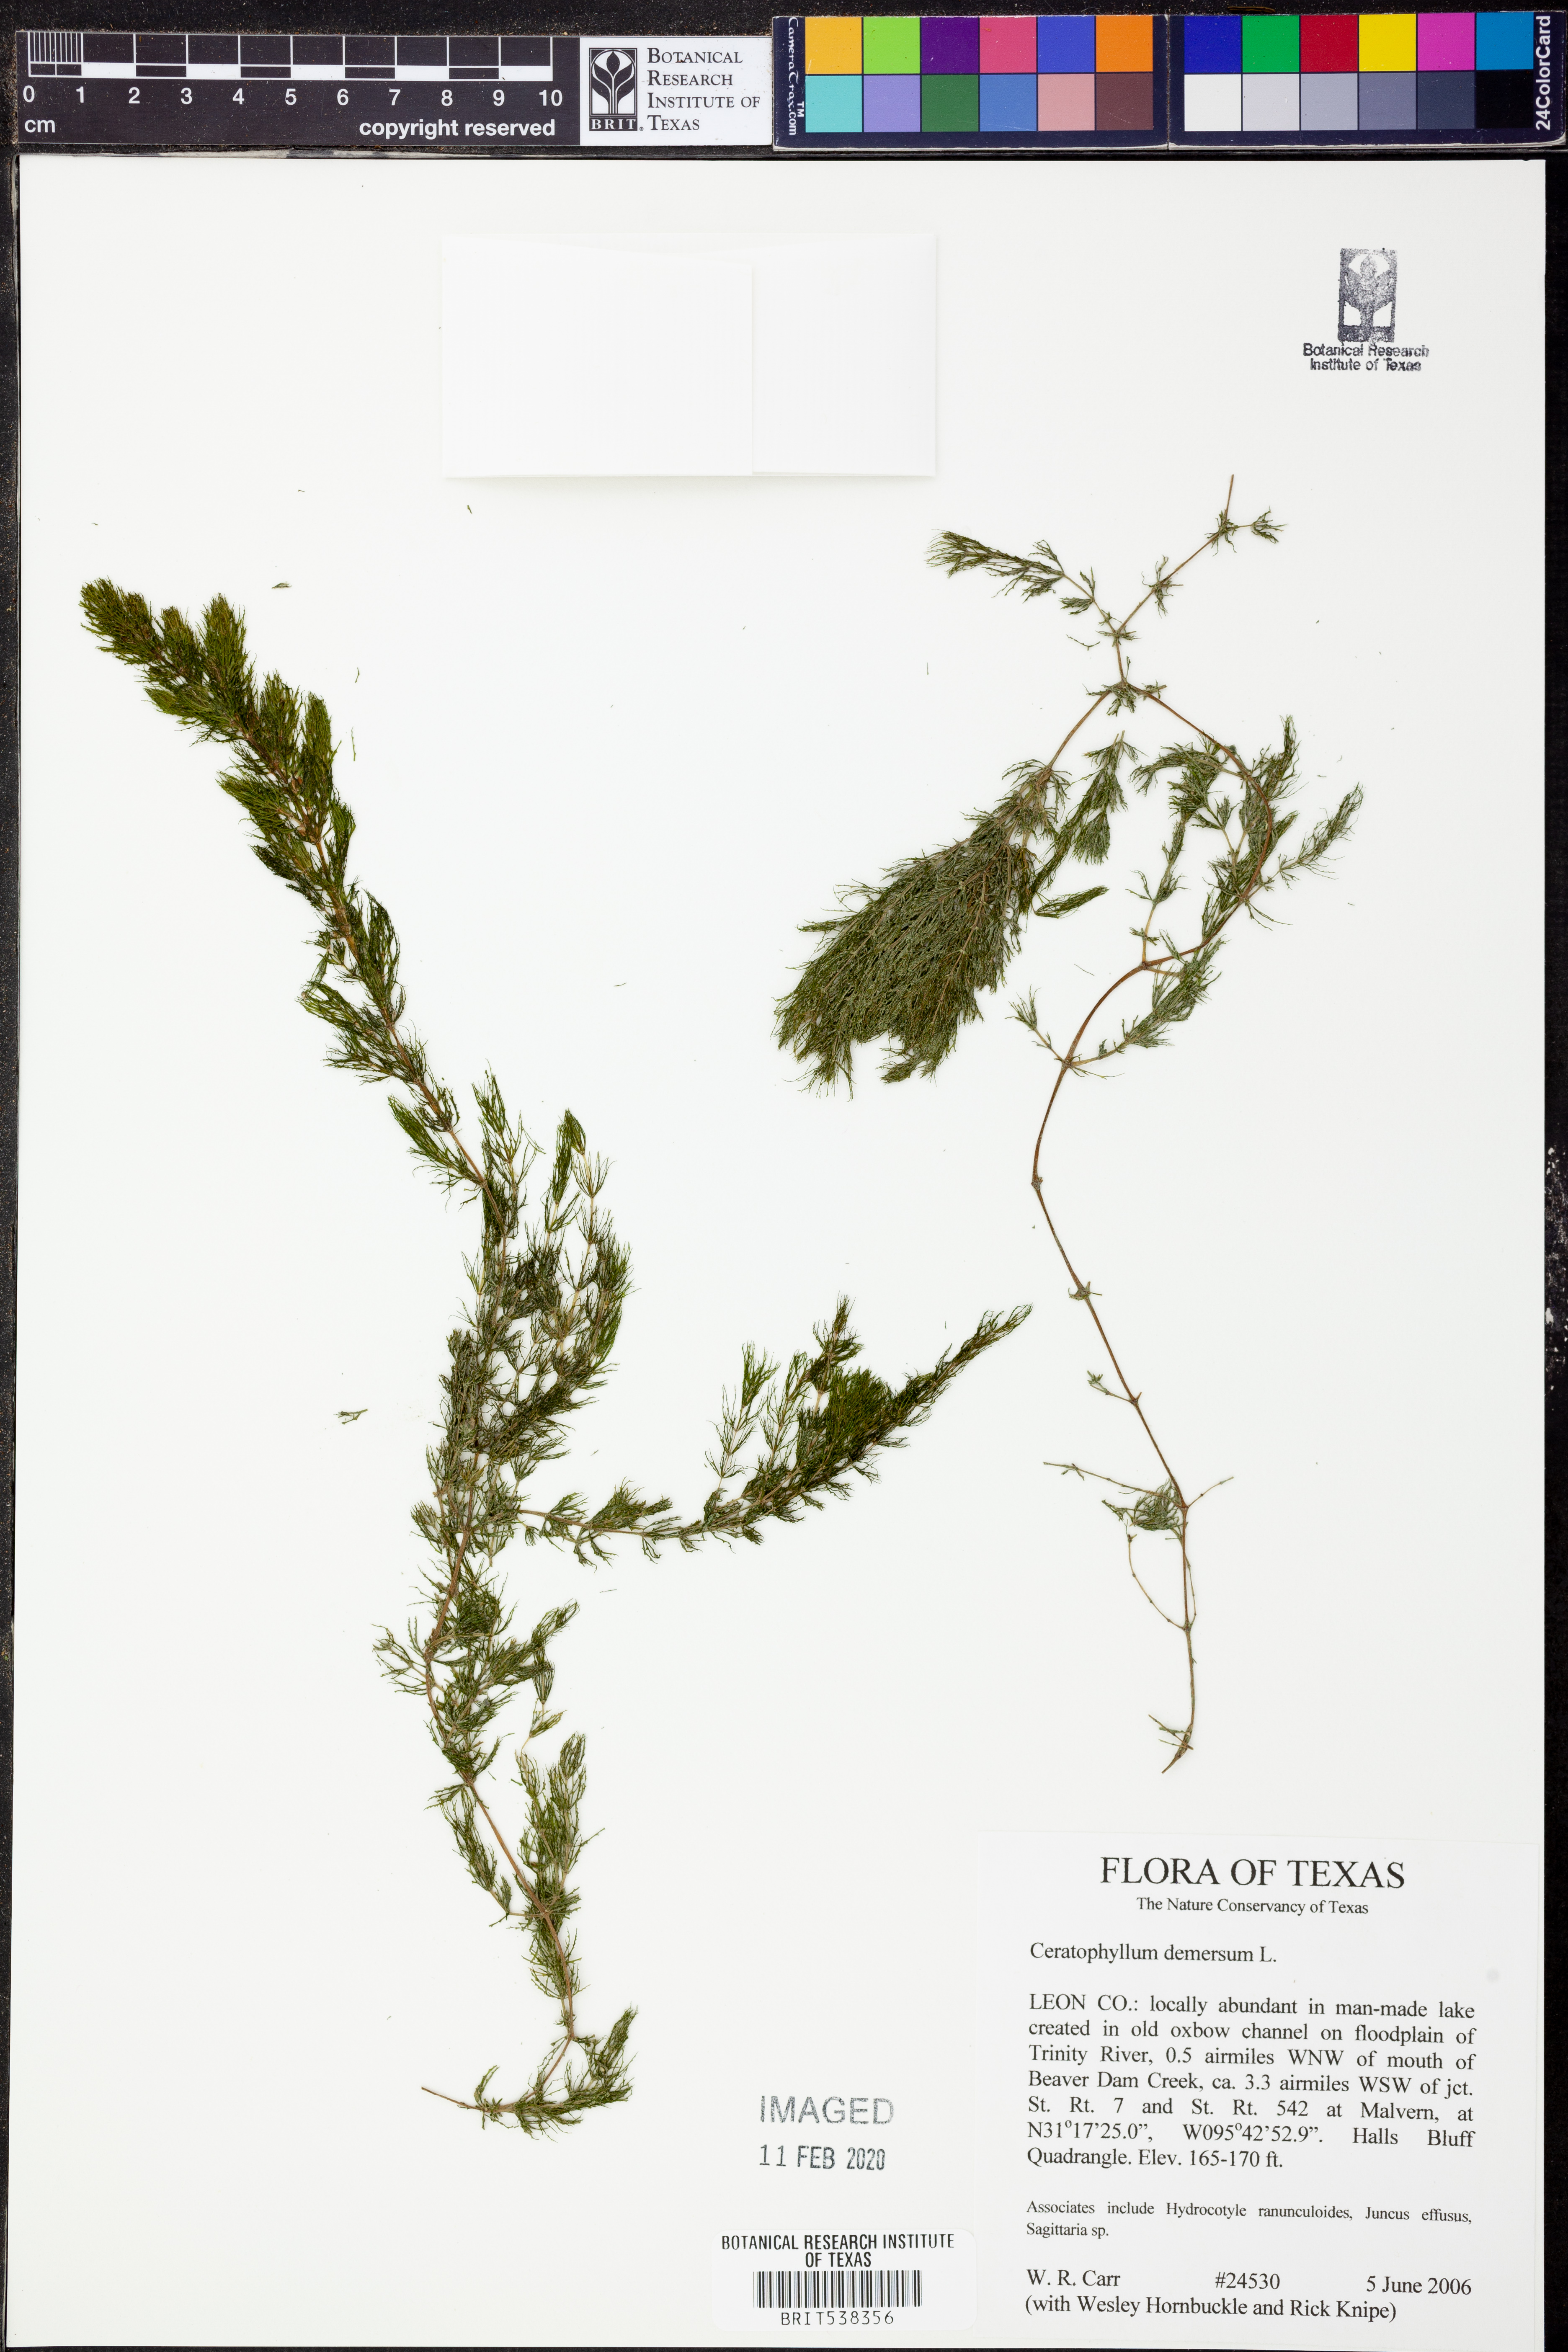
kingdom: Plantae
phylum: Tracheophyta
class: Magnoliopsida
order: Ceratophyllales
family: Ceratophyllaceae
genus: Ceratophyllum
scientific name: Ceratophyllum demersum
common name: Rigid hornwort
